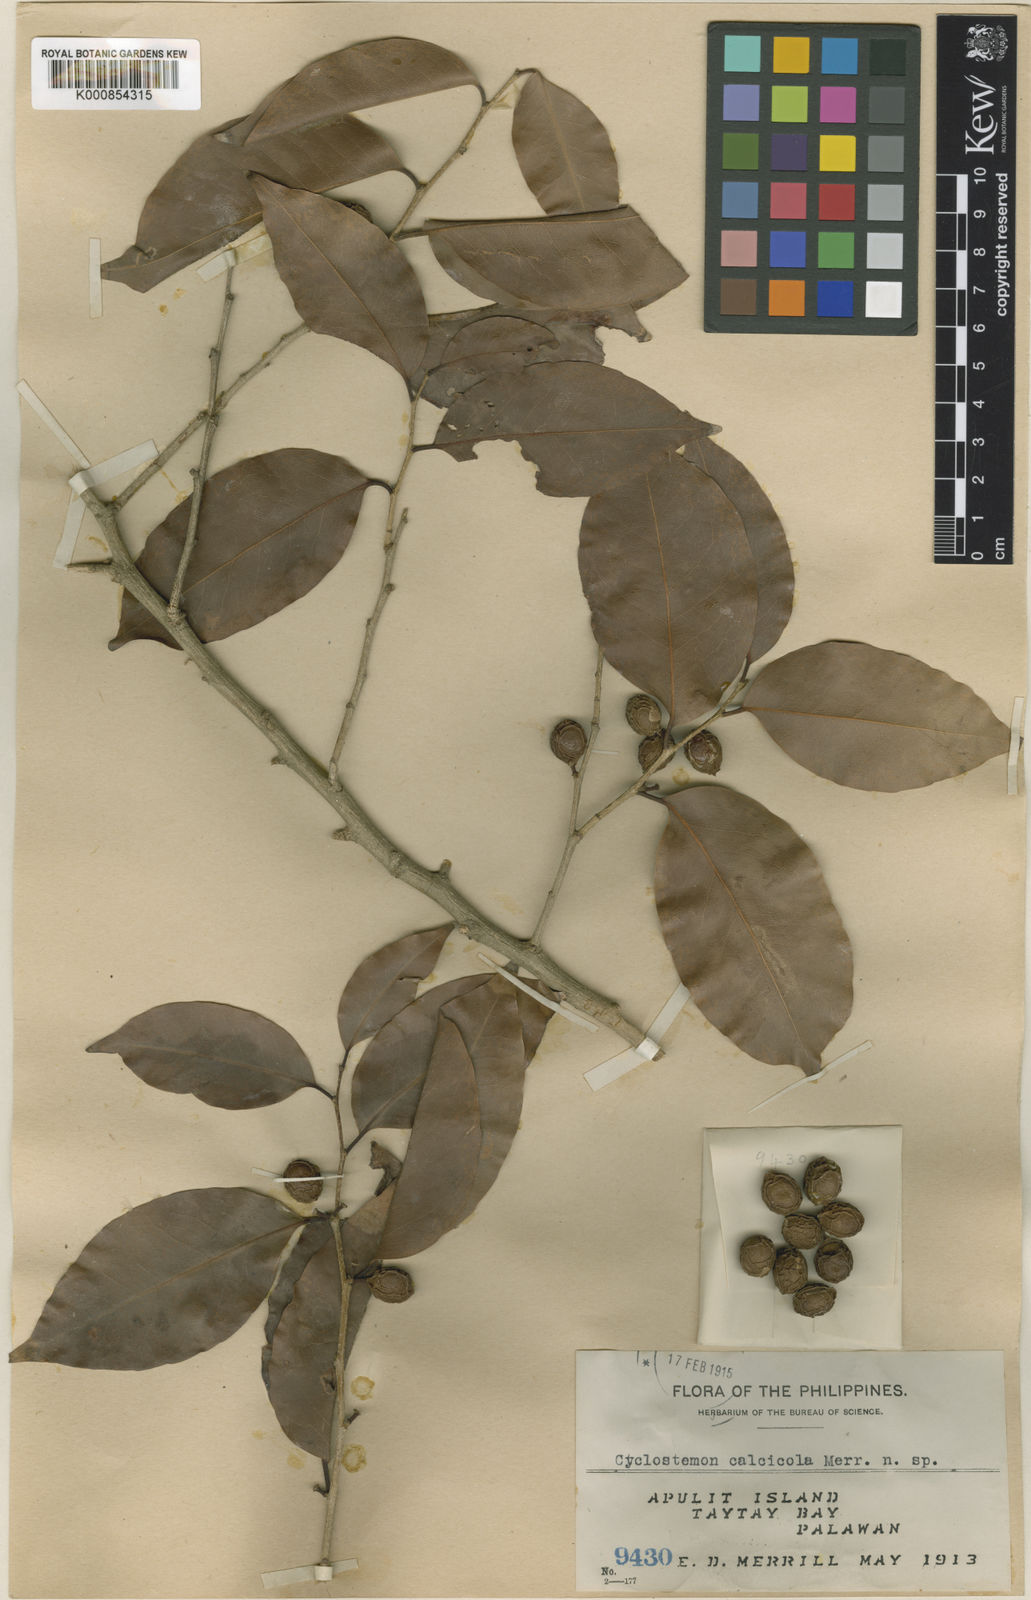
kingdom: Plantae
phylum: Tracheophyta
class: Magnoliopsida
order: Malpighiales
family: Putranjivaceae
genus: Drypetes
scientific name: Drypetes ovalis
